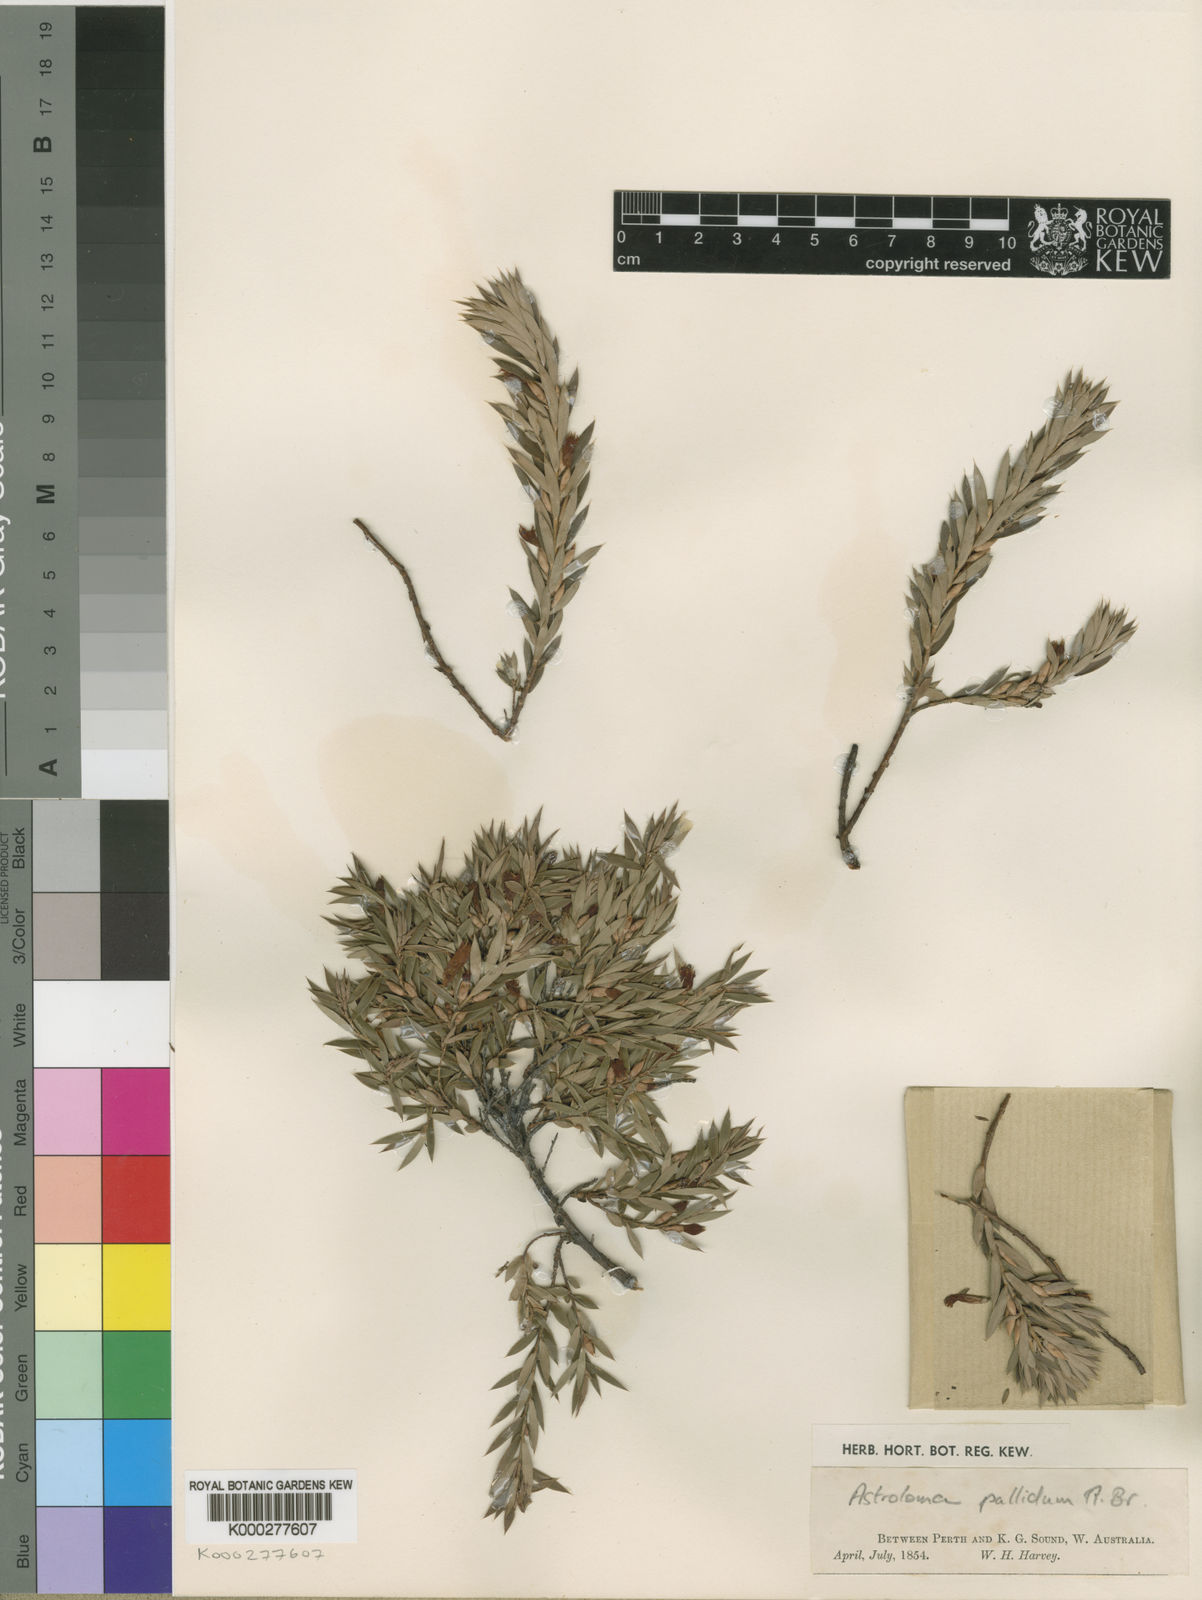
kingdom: Plantae
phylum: Tracheophyta
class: Magnoliopsida
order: Ericales
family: Ericaceae
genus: Styphelia
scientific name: Styphelia pallida
